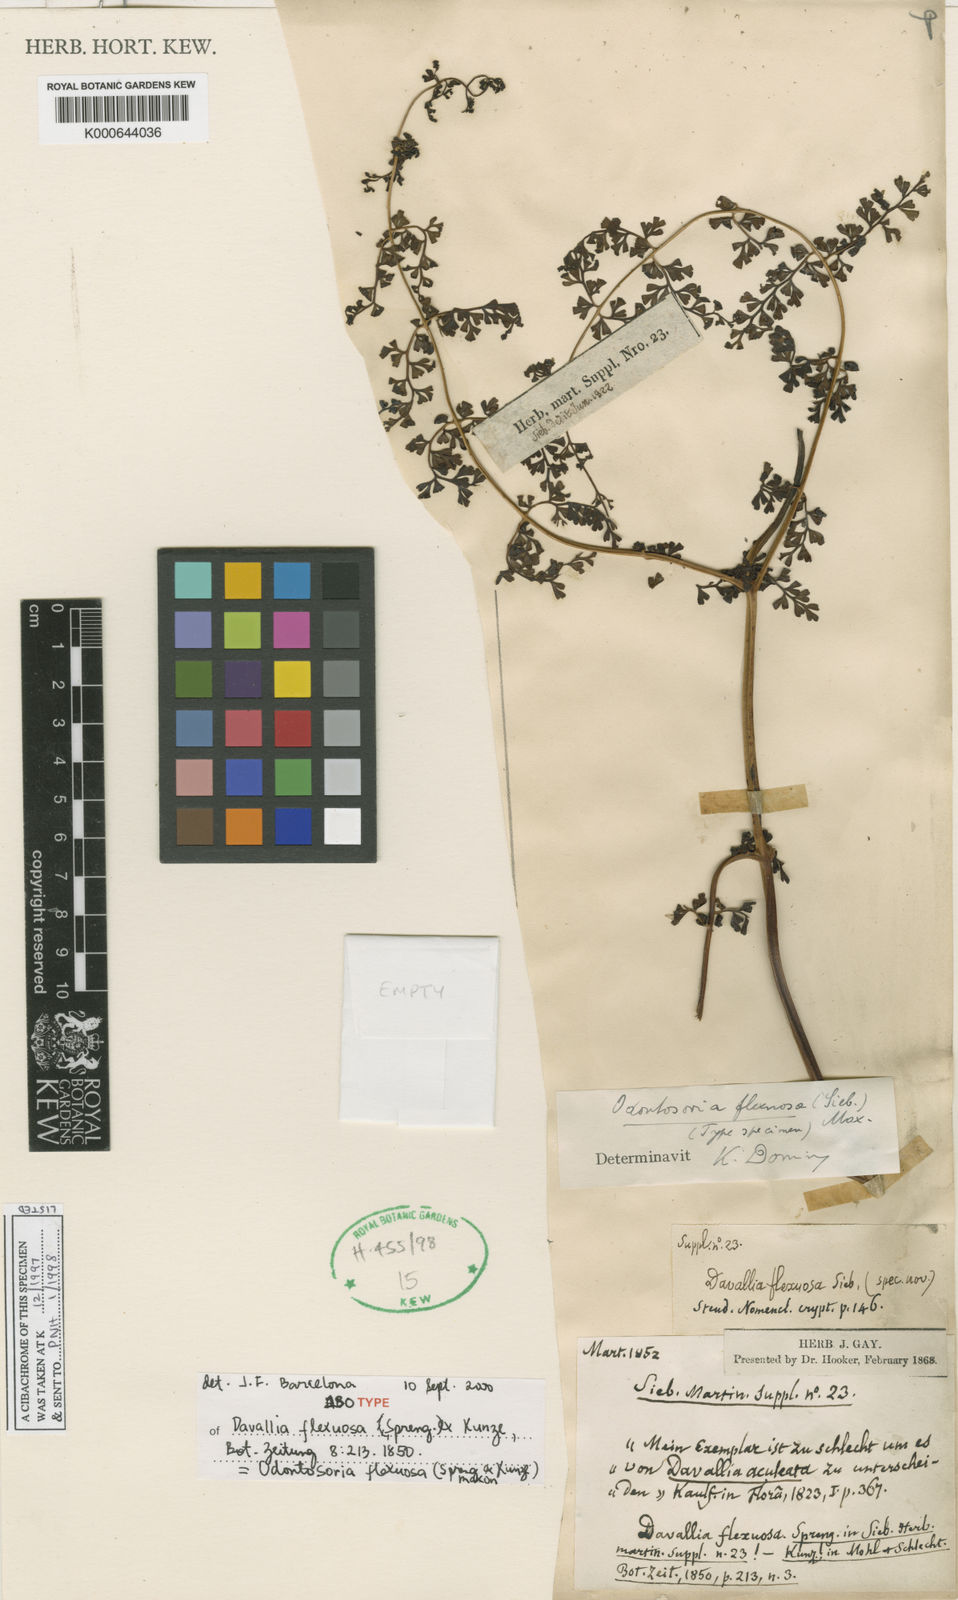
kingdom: Plantae
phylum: Tracheophyta
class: Polypodiopsida
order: Polypodiales
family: Lindsaeaceae
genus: Odontosoria
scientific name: Odontosoria flexuosa
